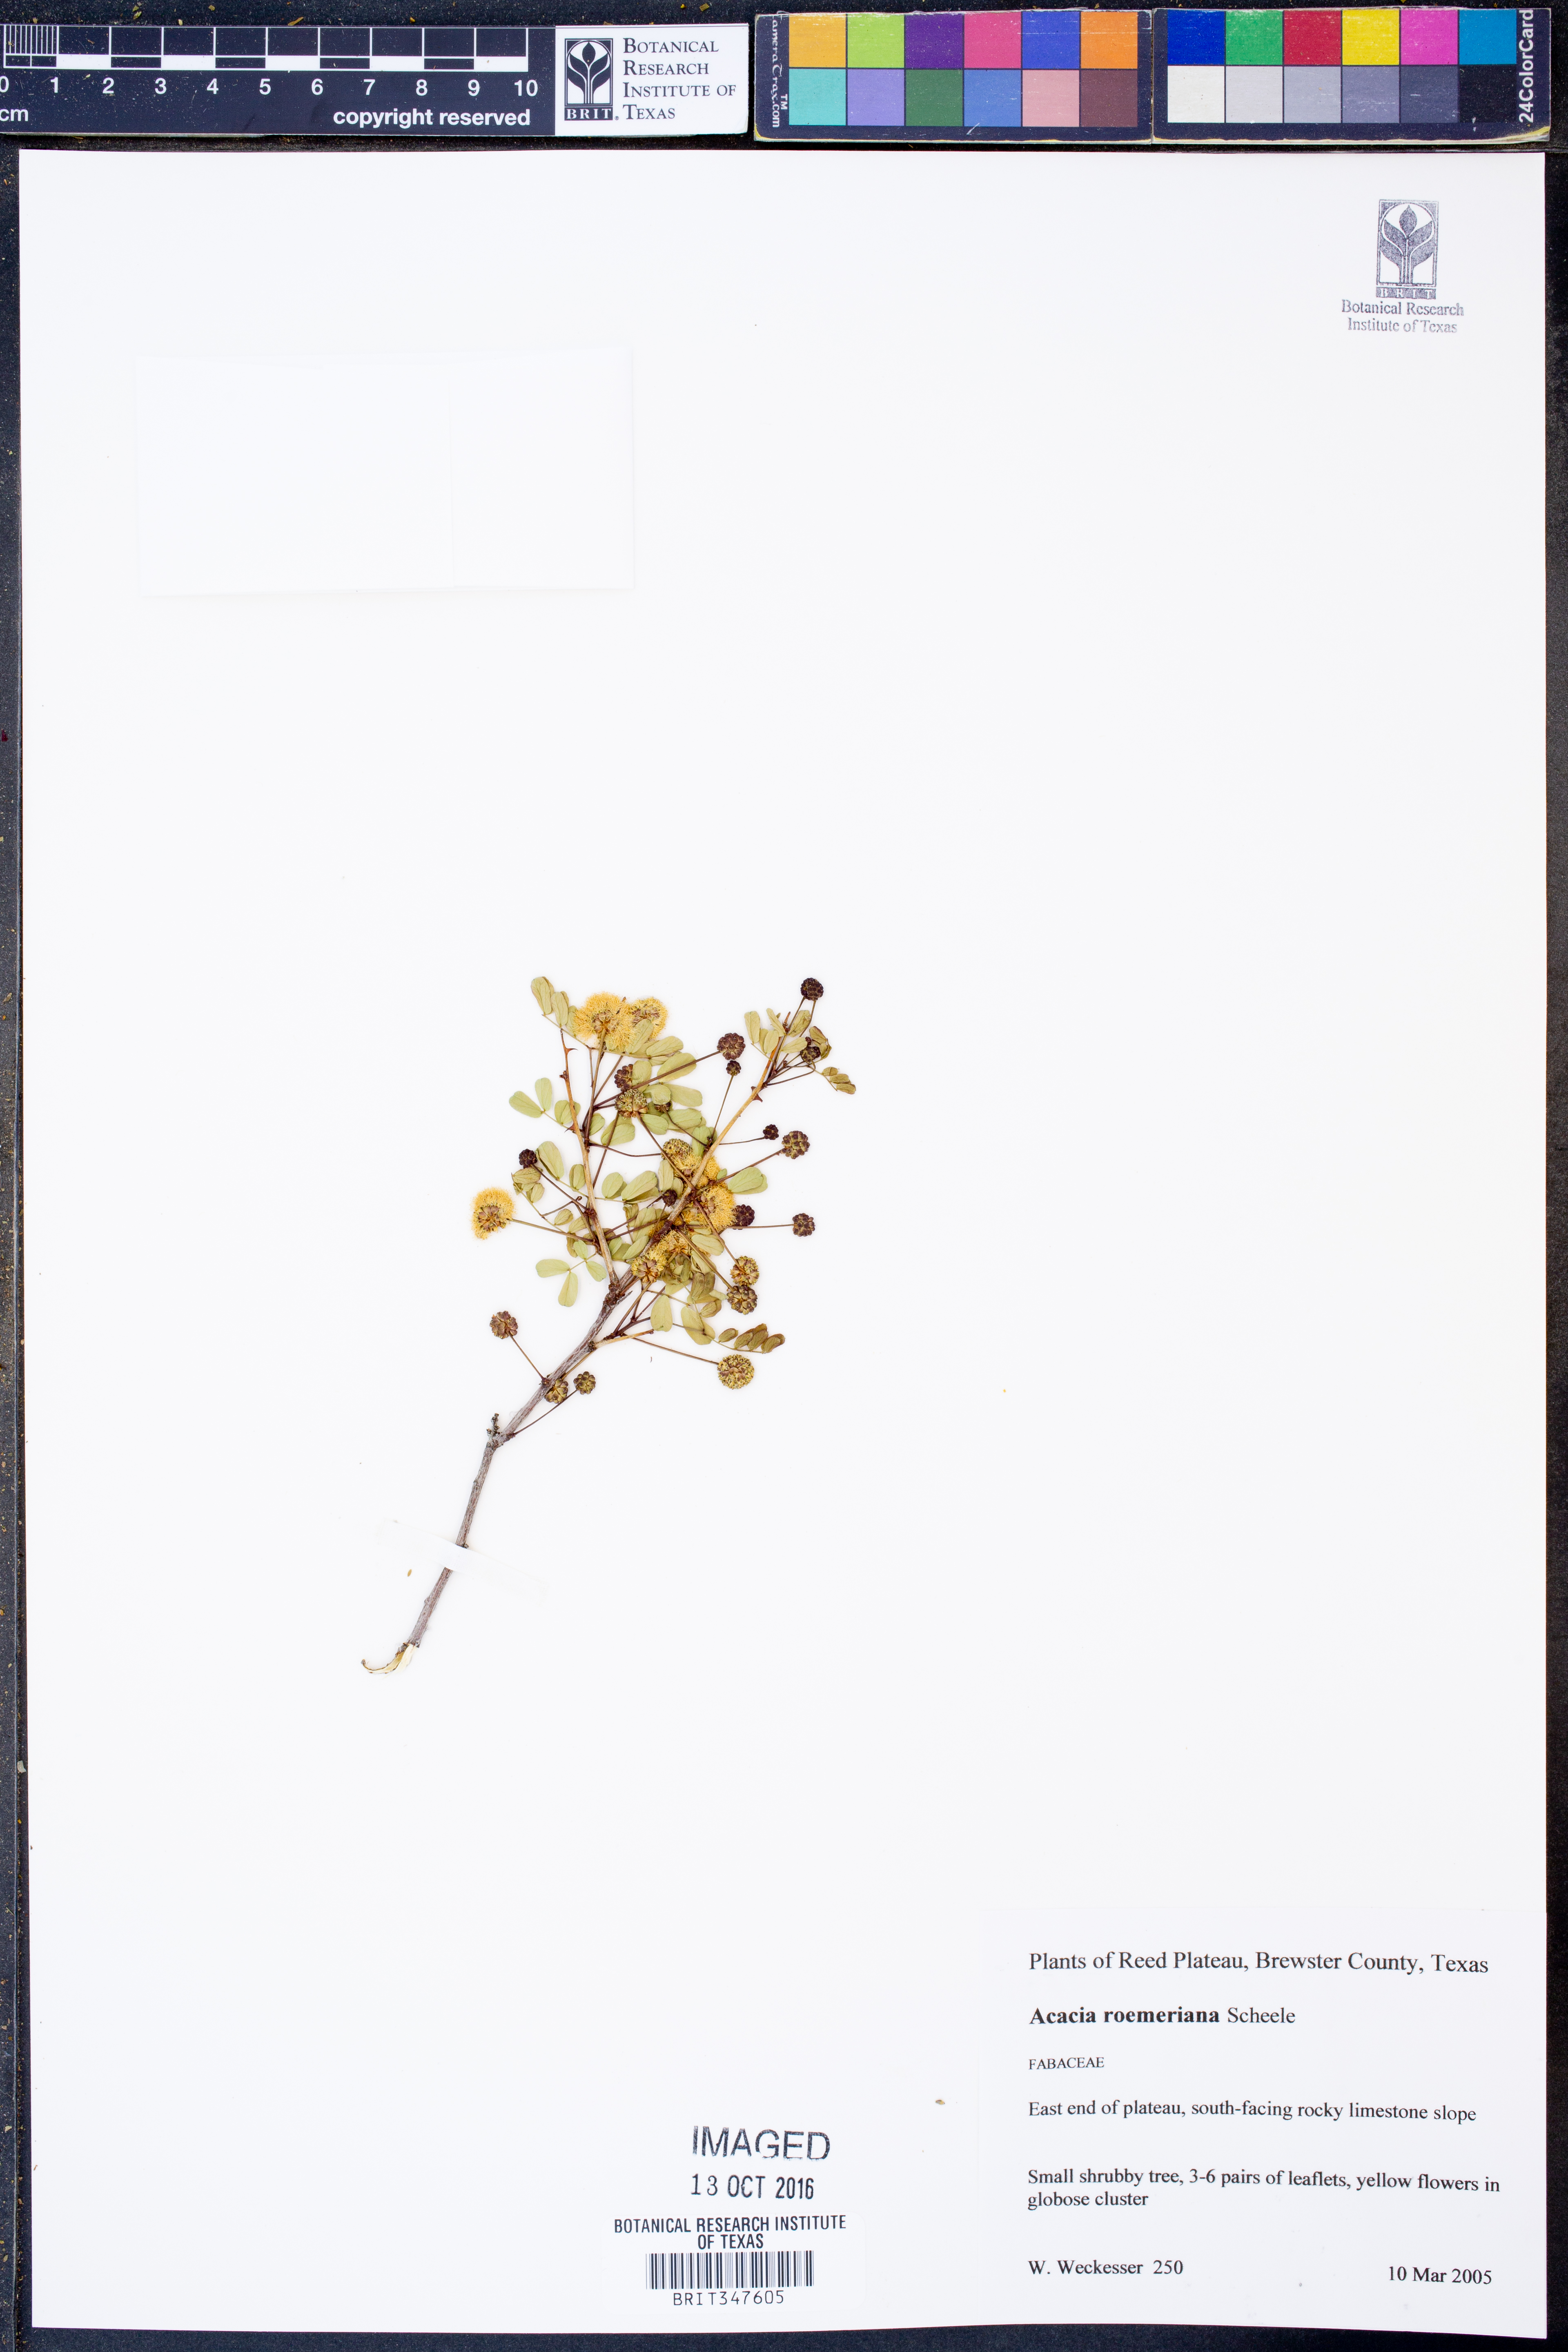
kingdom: Plantae
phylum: Tracheophyta
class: Magnoliopsida
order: Fabales
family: Fabaceae
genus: Senegalia
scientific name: Senegalia roemeriana
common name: Roemer's acacia
